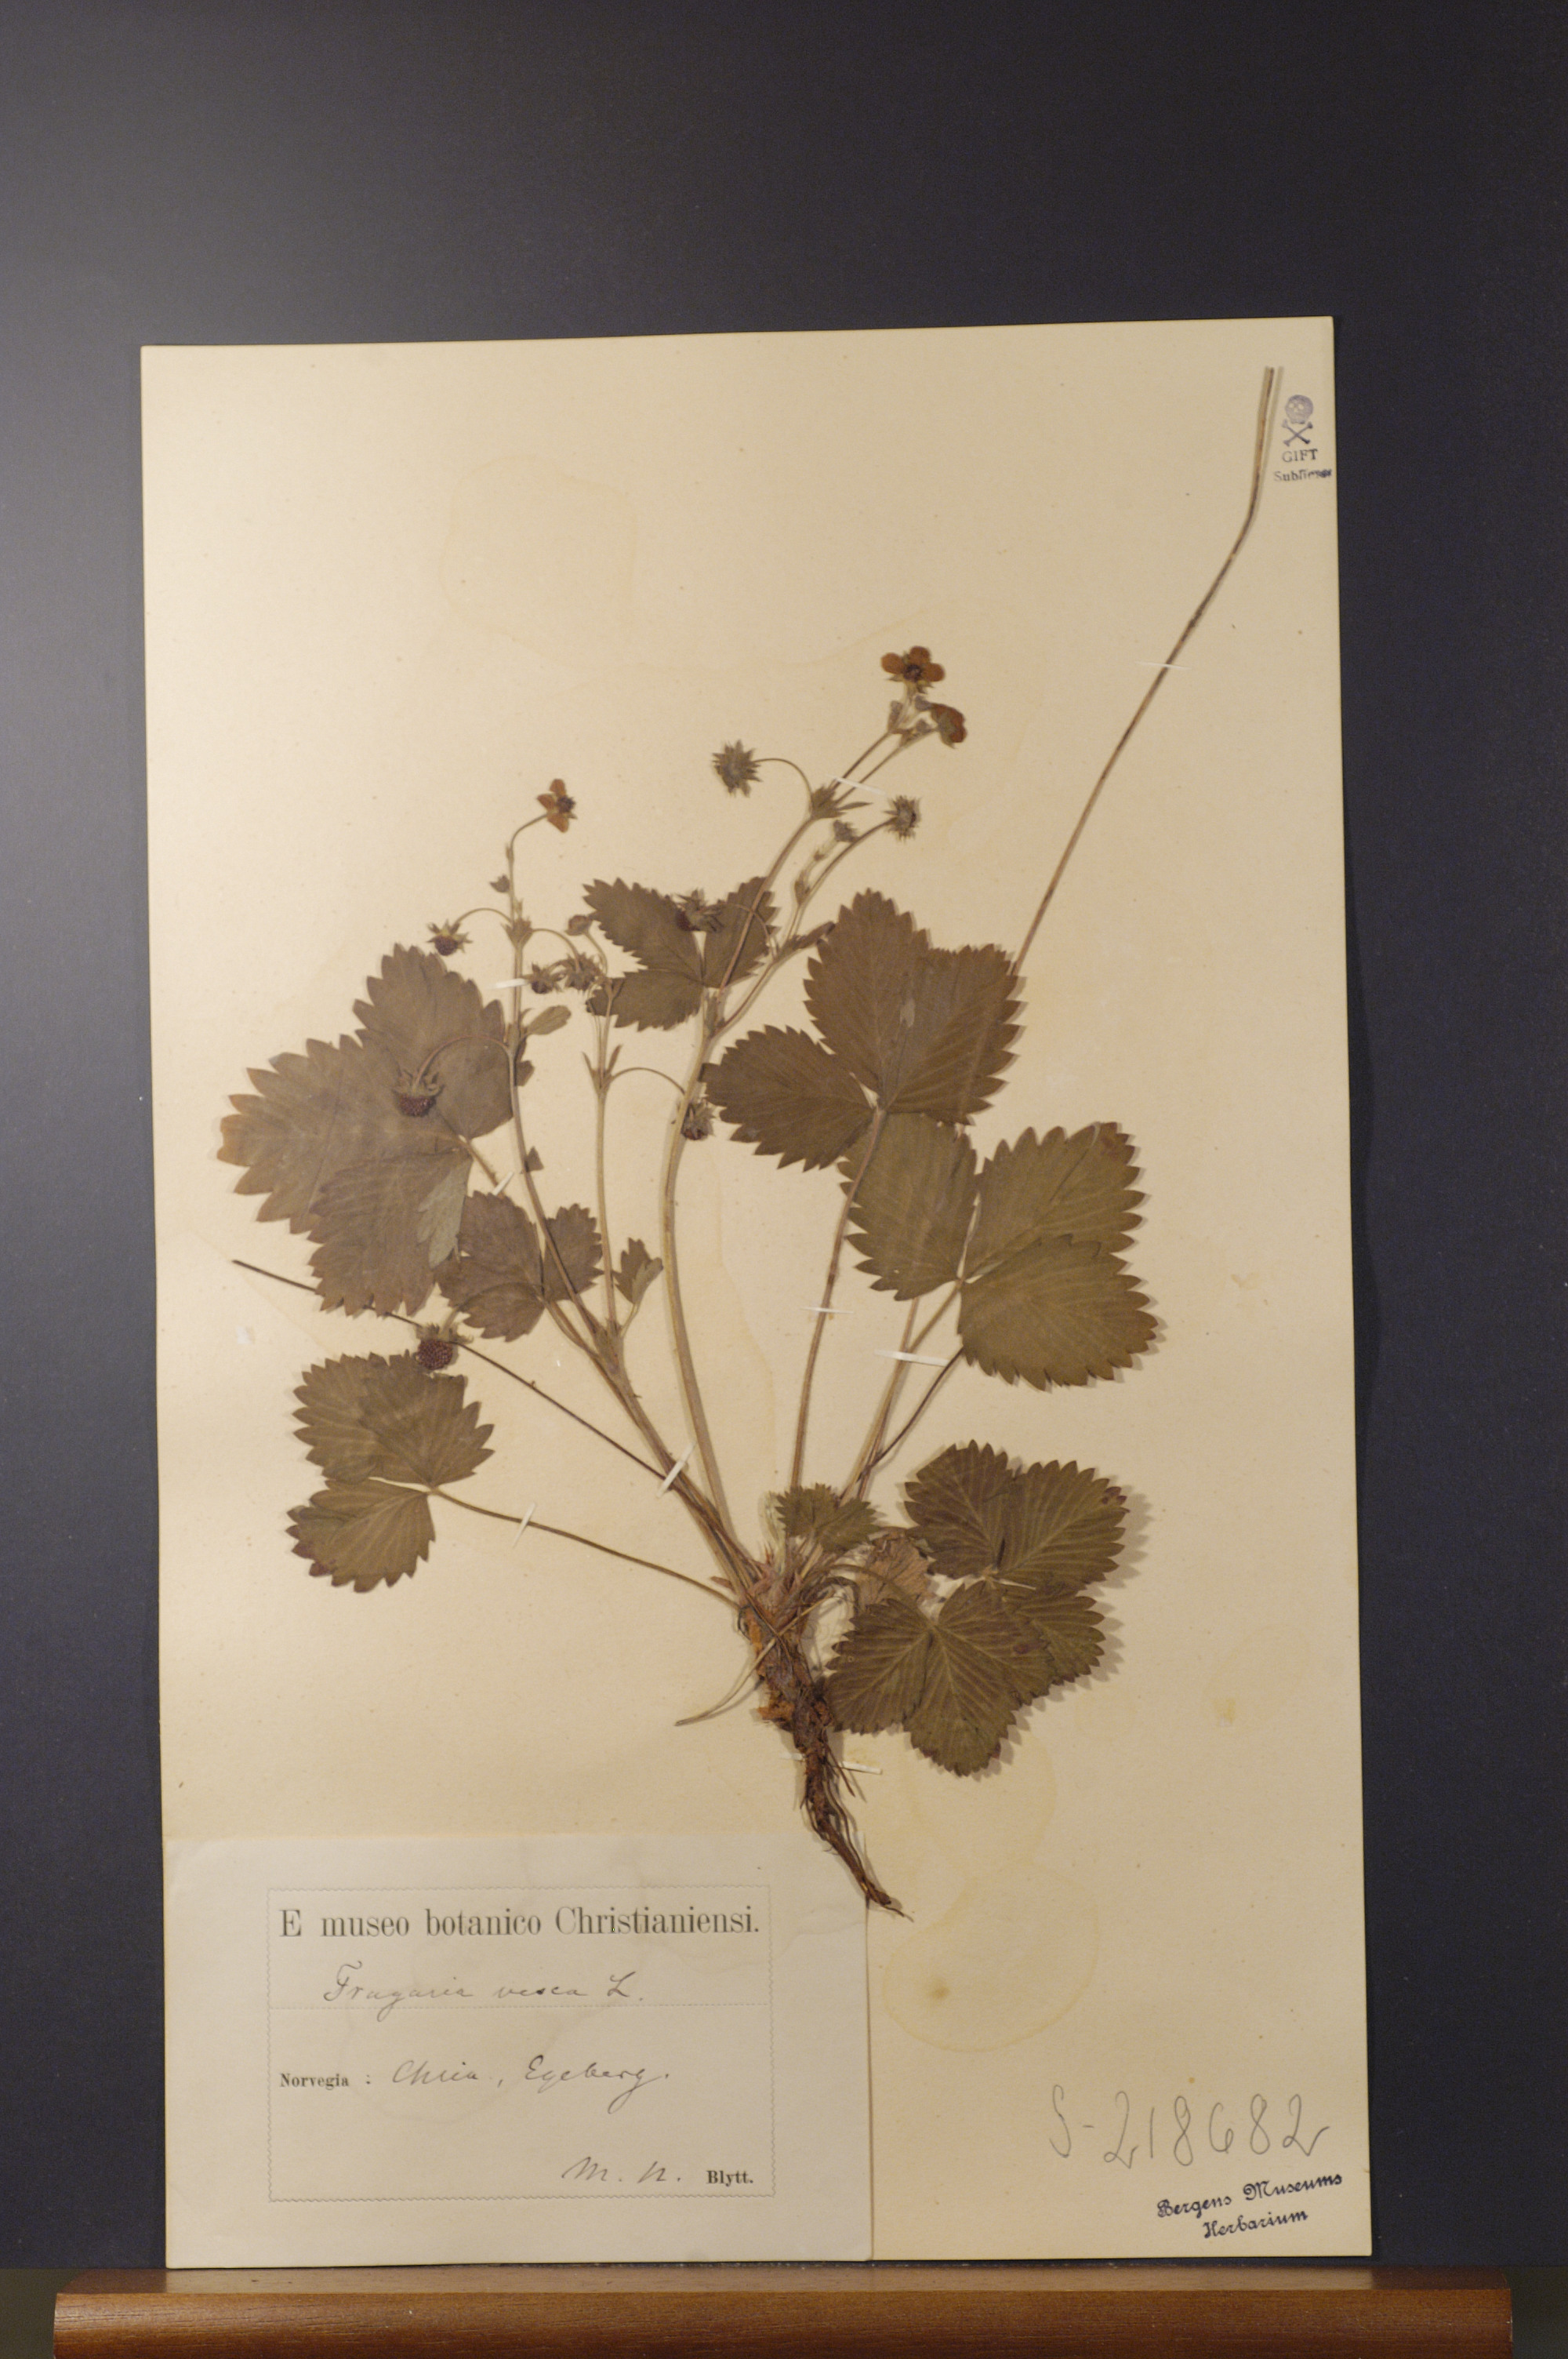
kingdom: Plantae
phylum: Tracheophyta
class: Magnoliopsida
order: Rosales
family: Rosaceae
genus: Fragaria
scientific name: Fragaria vesca
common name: Wild strawberry
